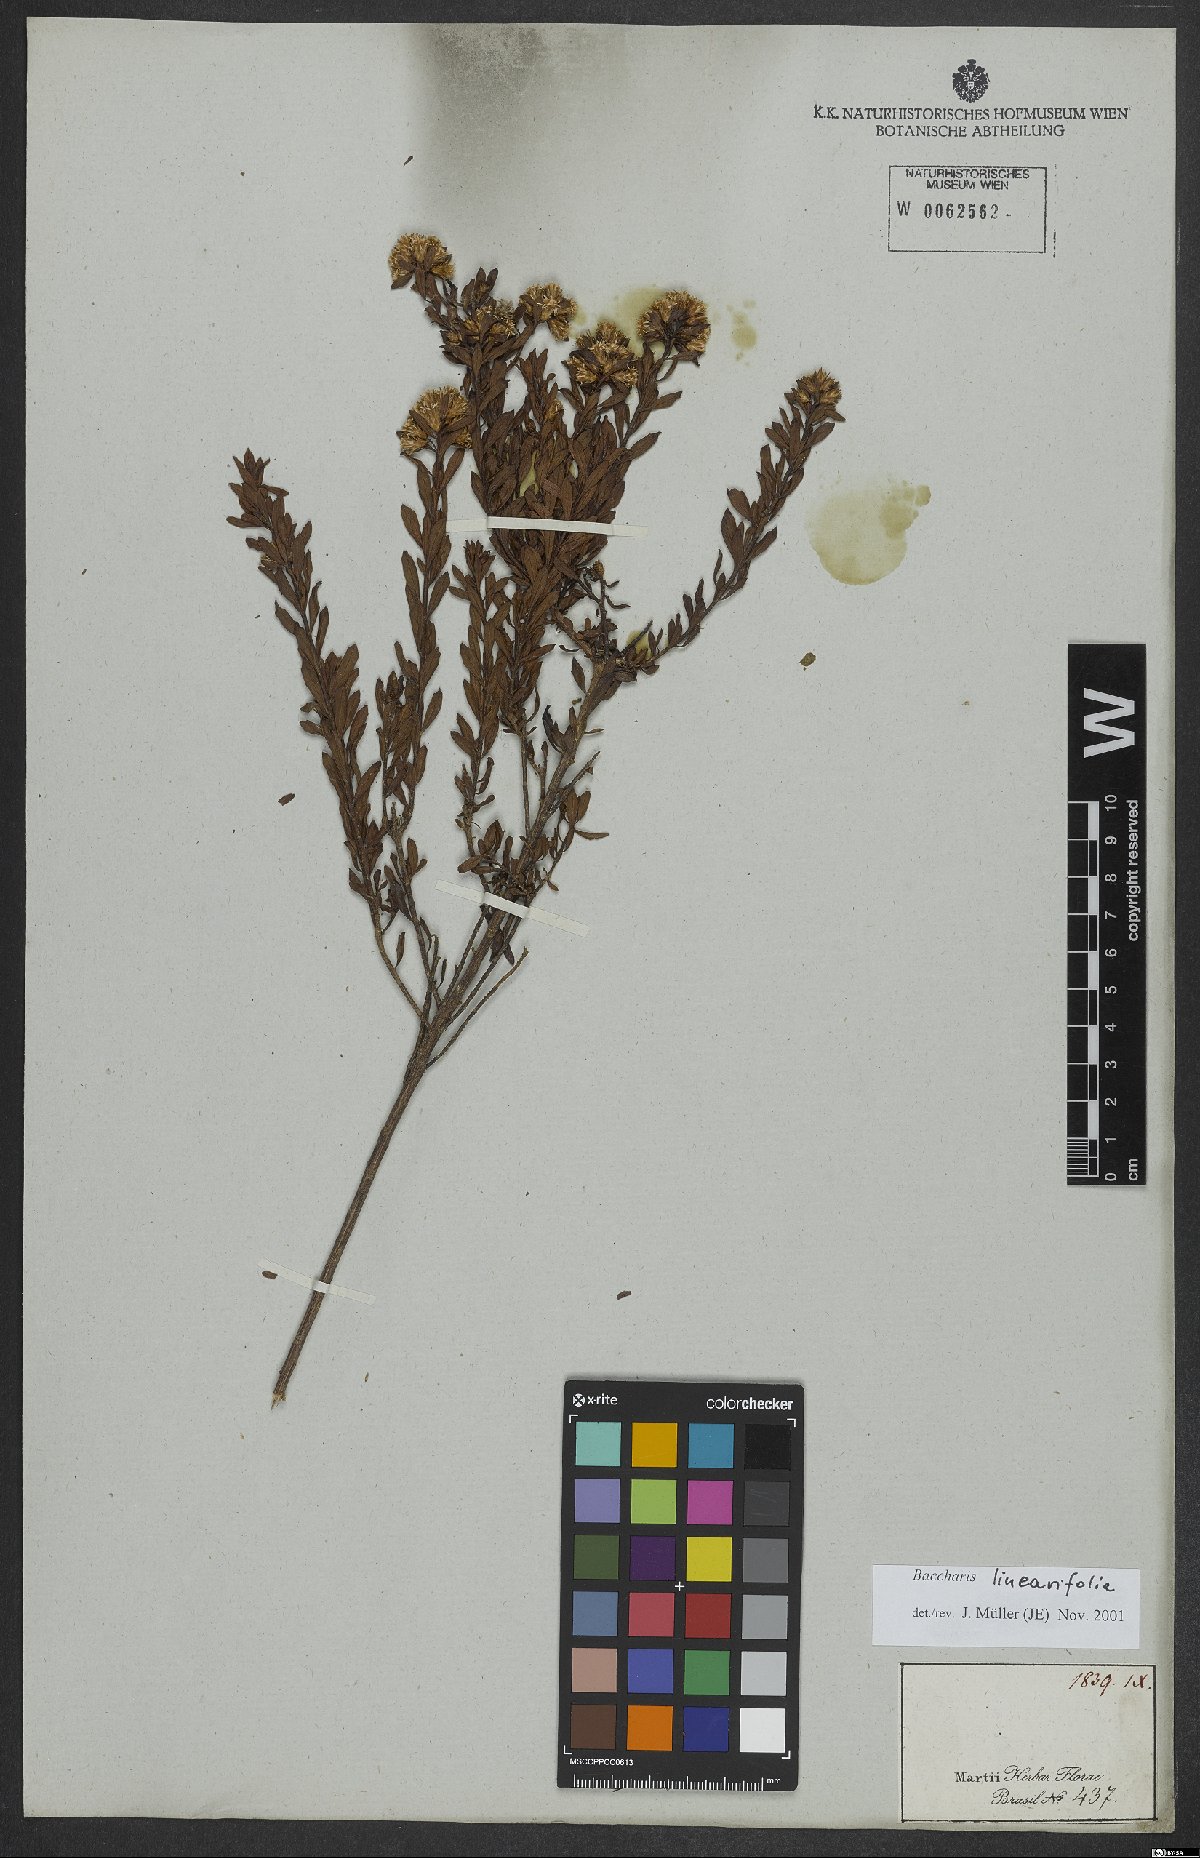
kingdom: Plantae
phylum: Tracheophyta
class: Magnoliopsida
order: Asterales
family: Asteraceae
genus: Baccharis
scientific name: Baccharis linearifolia
